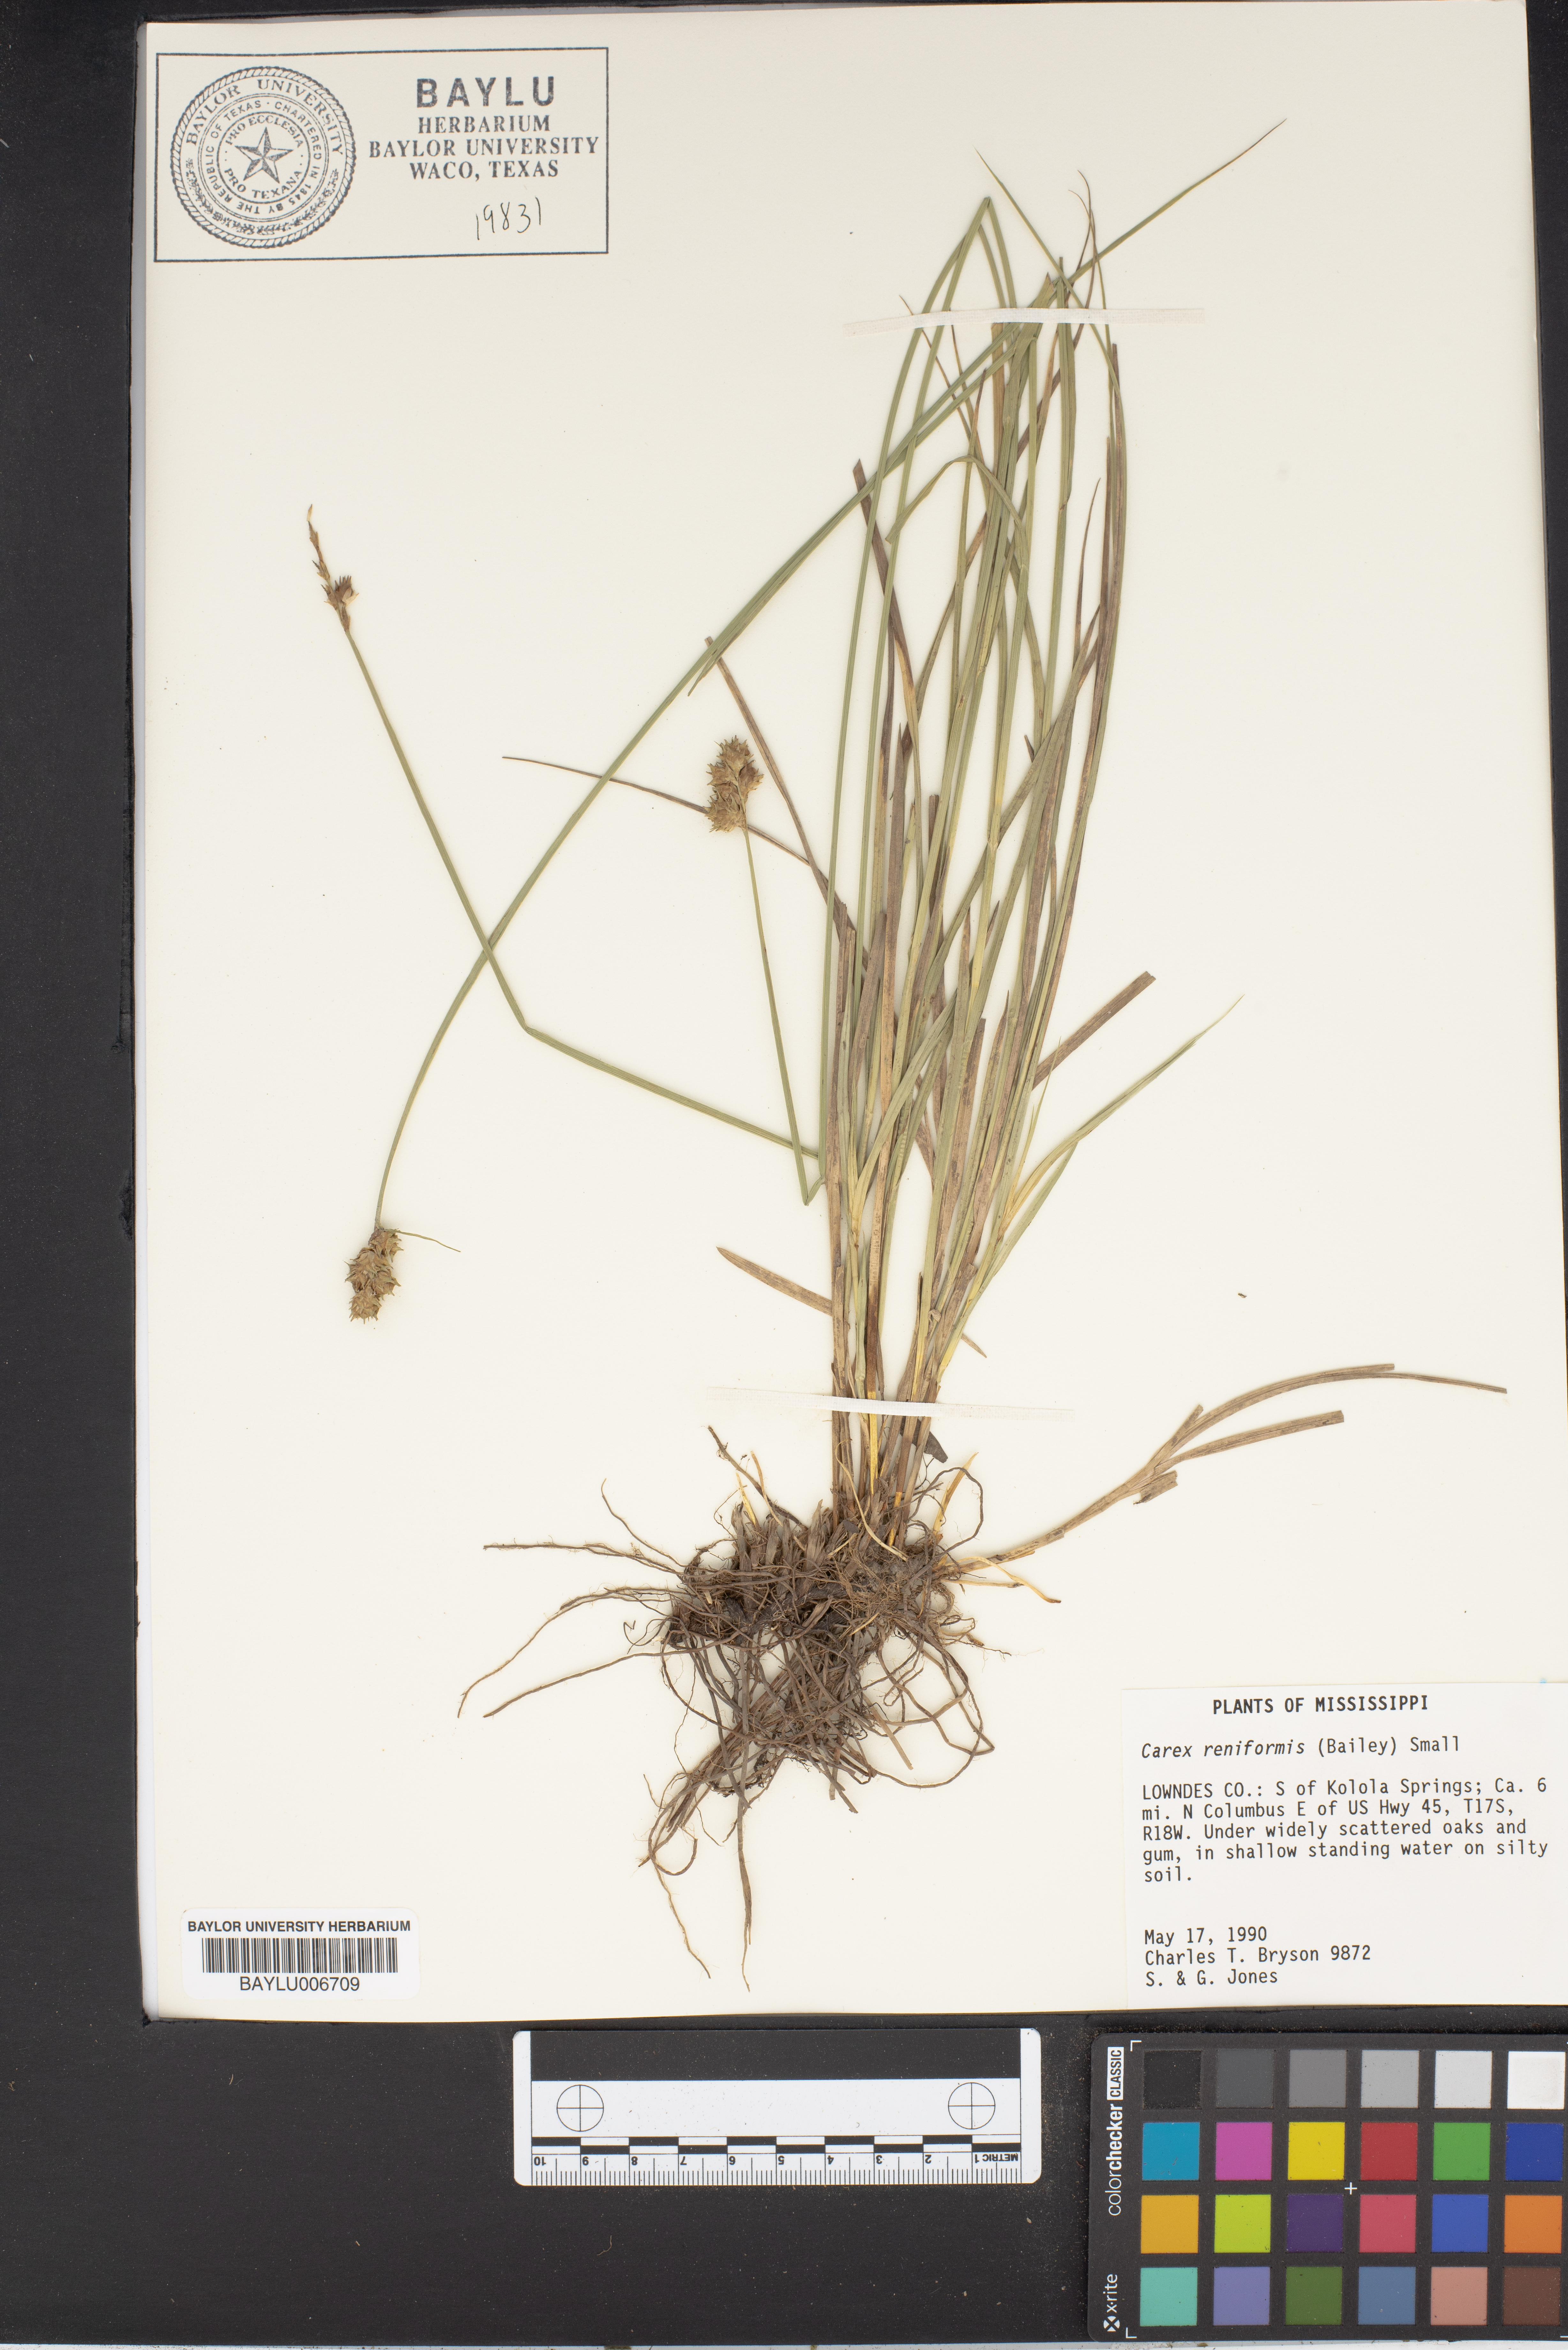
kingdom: Plantae
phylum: Tracheophyta
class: Liliopsida
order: Poales
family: Cyperaceae
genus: Carex
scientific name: Carex reniformis
